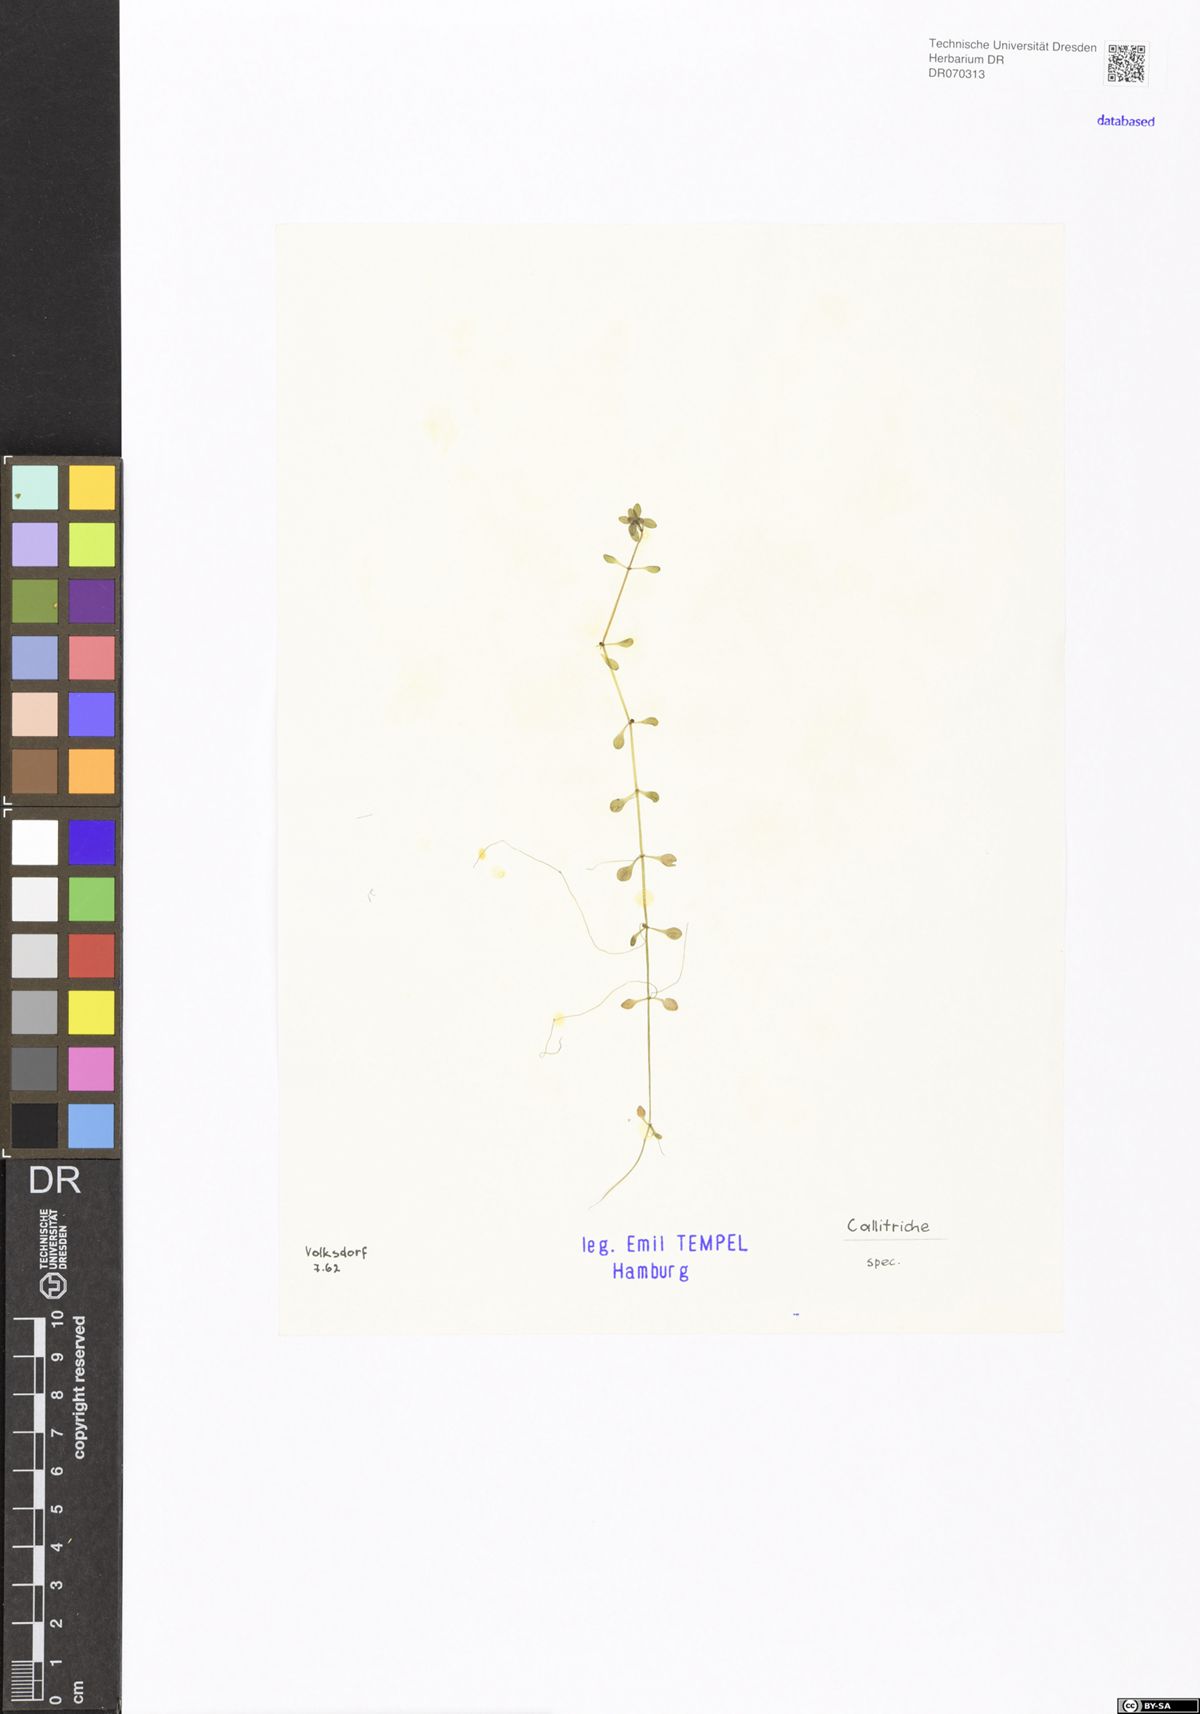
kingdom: Plantae
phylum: Tracheophyta
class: Magnoliopsida
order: Lamiales
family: Plantaginaceae
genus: Callitriche
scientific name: Callitriche
